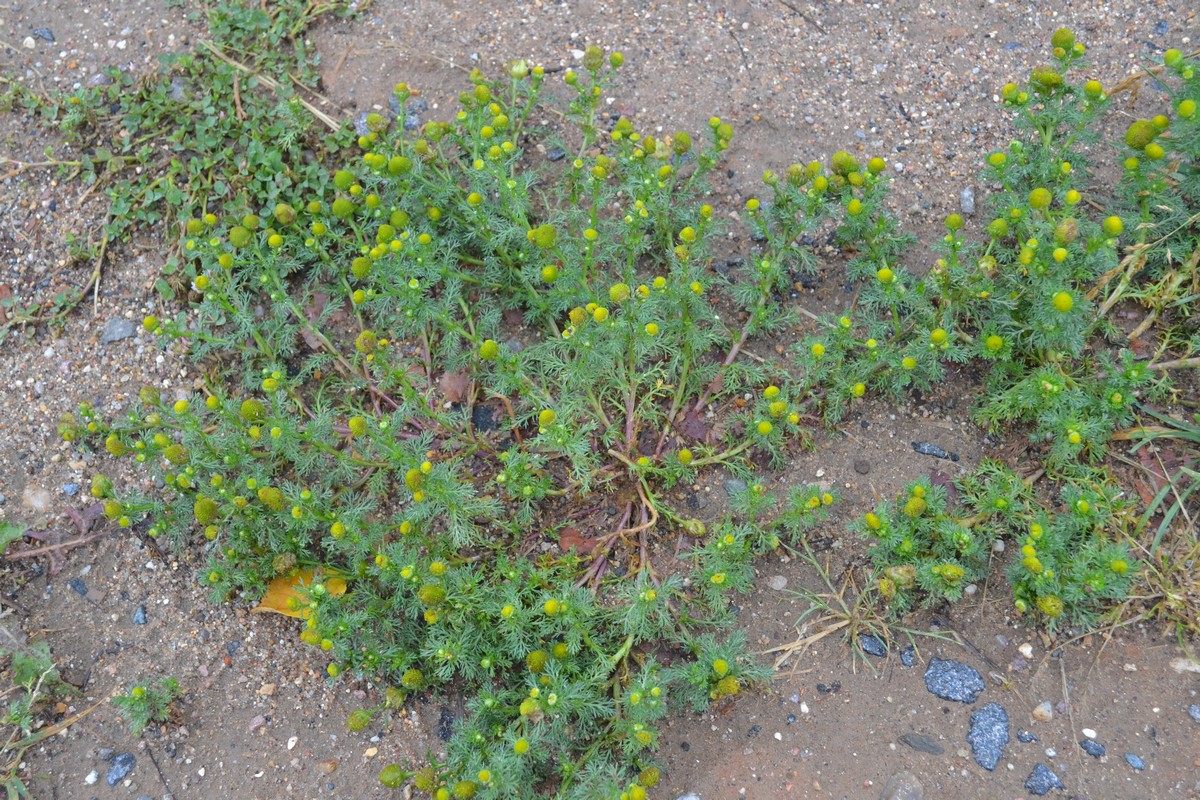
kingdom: Plantae
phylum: Tracheophyta
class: Magnoliopsida
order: Asterales
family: Asteraceae
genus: Matricaria
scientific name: Matricaria discoidea
